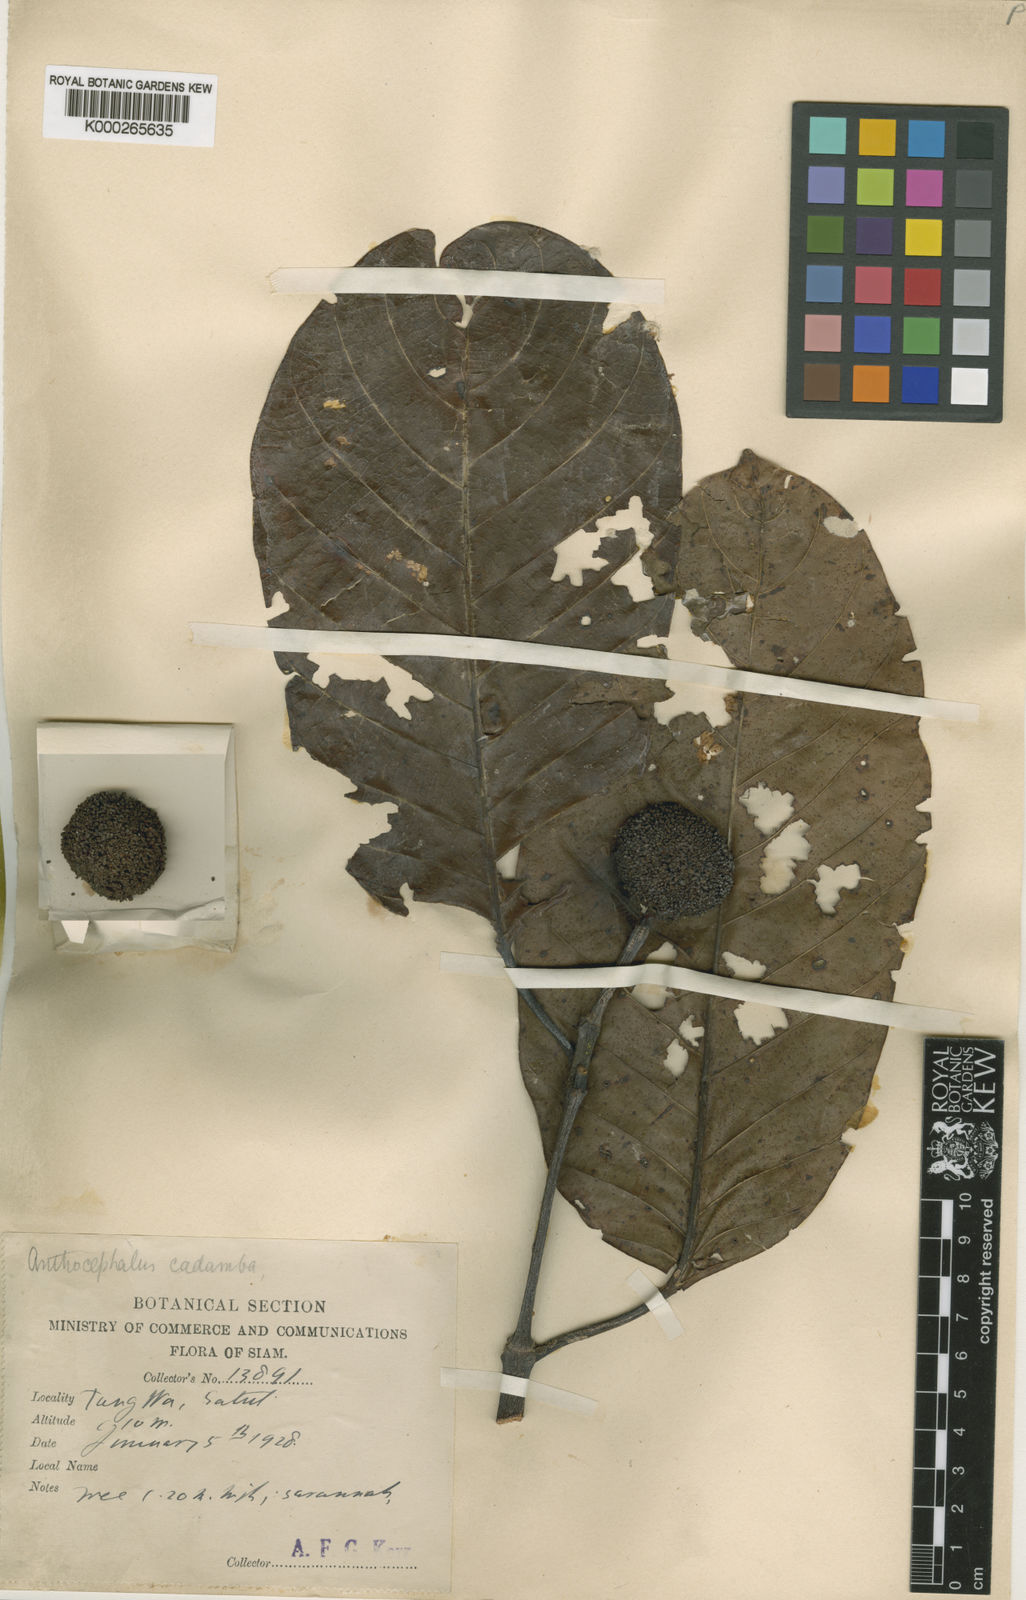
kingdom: Plantae
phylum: Tracheophyta
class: Magnoliopsida
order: Gentianales
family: Rubiaceae
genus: Neolamarckia
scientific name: Neolamarckia cadamba
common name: Leichhardt-pine
